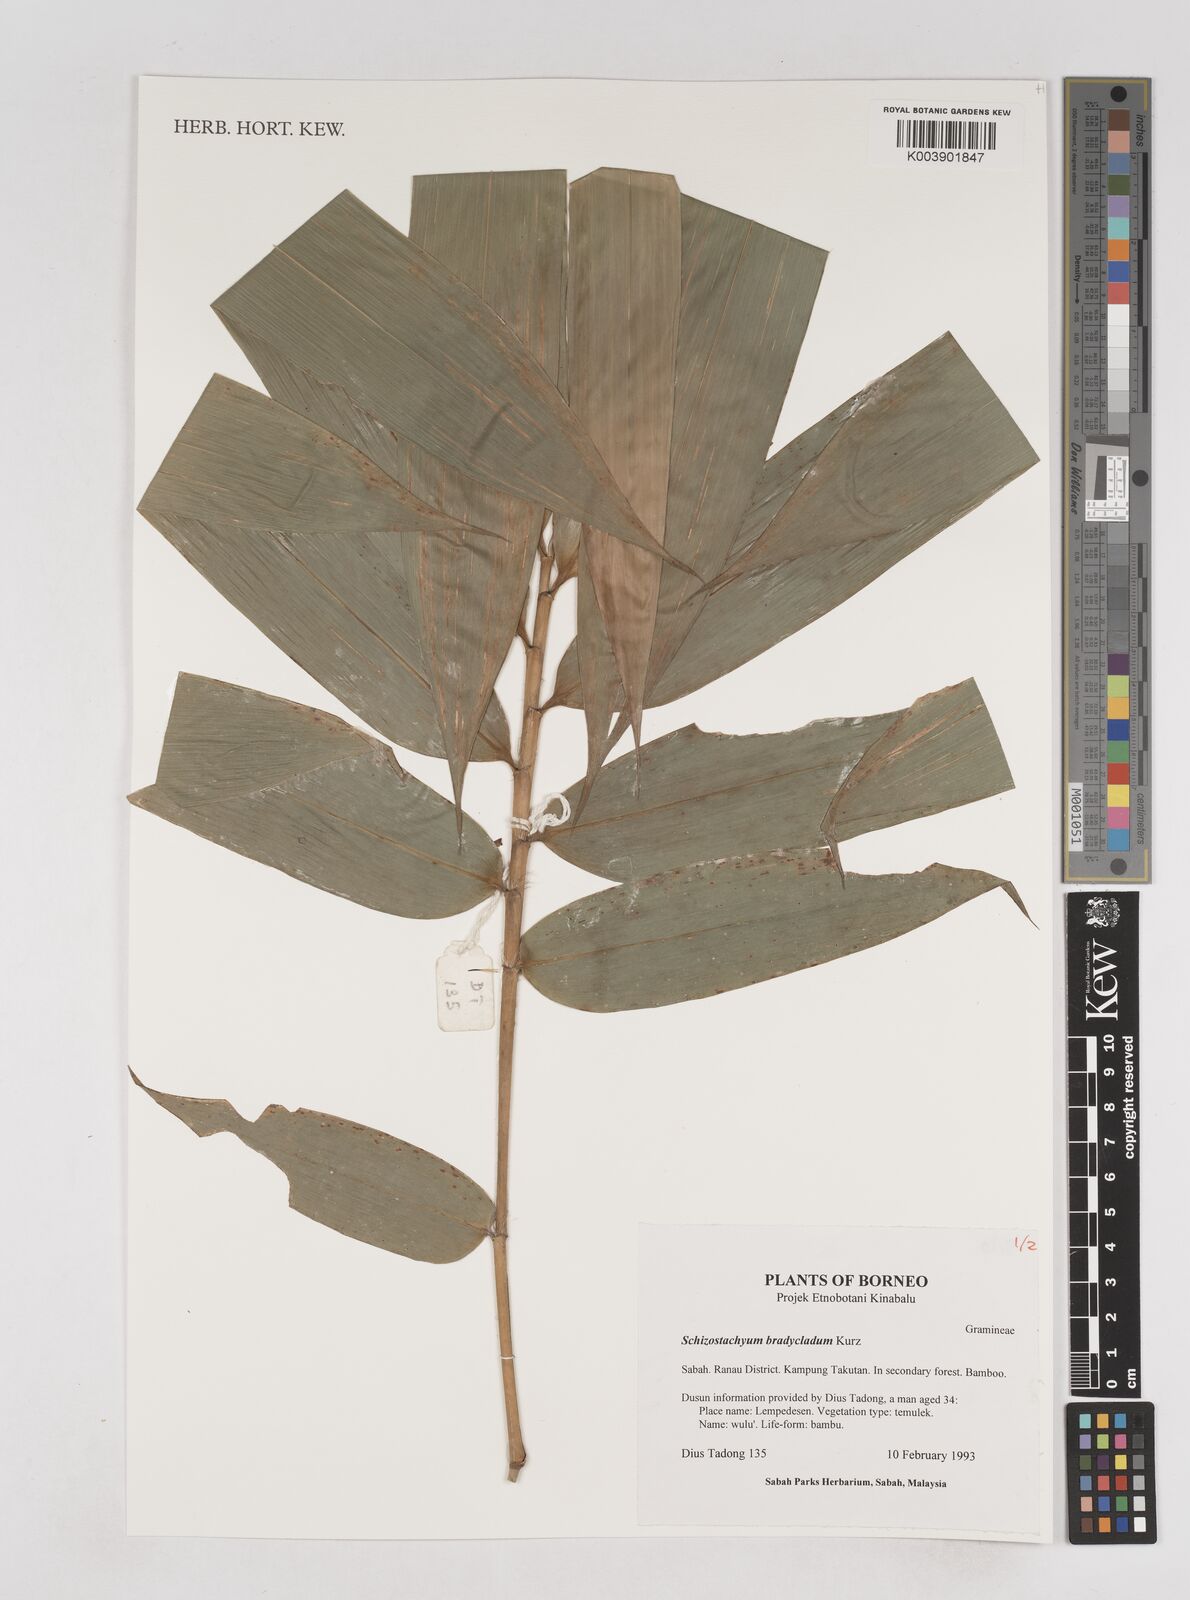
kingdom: Plantae
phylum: Tracheophyta
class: Liliopsida
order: Poales
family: Poaceae
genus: Schizostachyum
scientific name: Schizostachyum brachycladum
